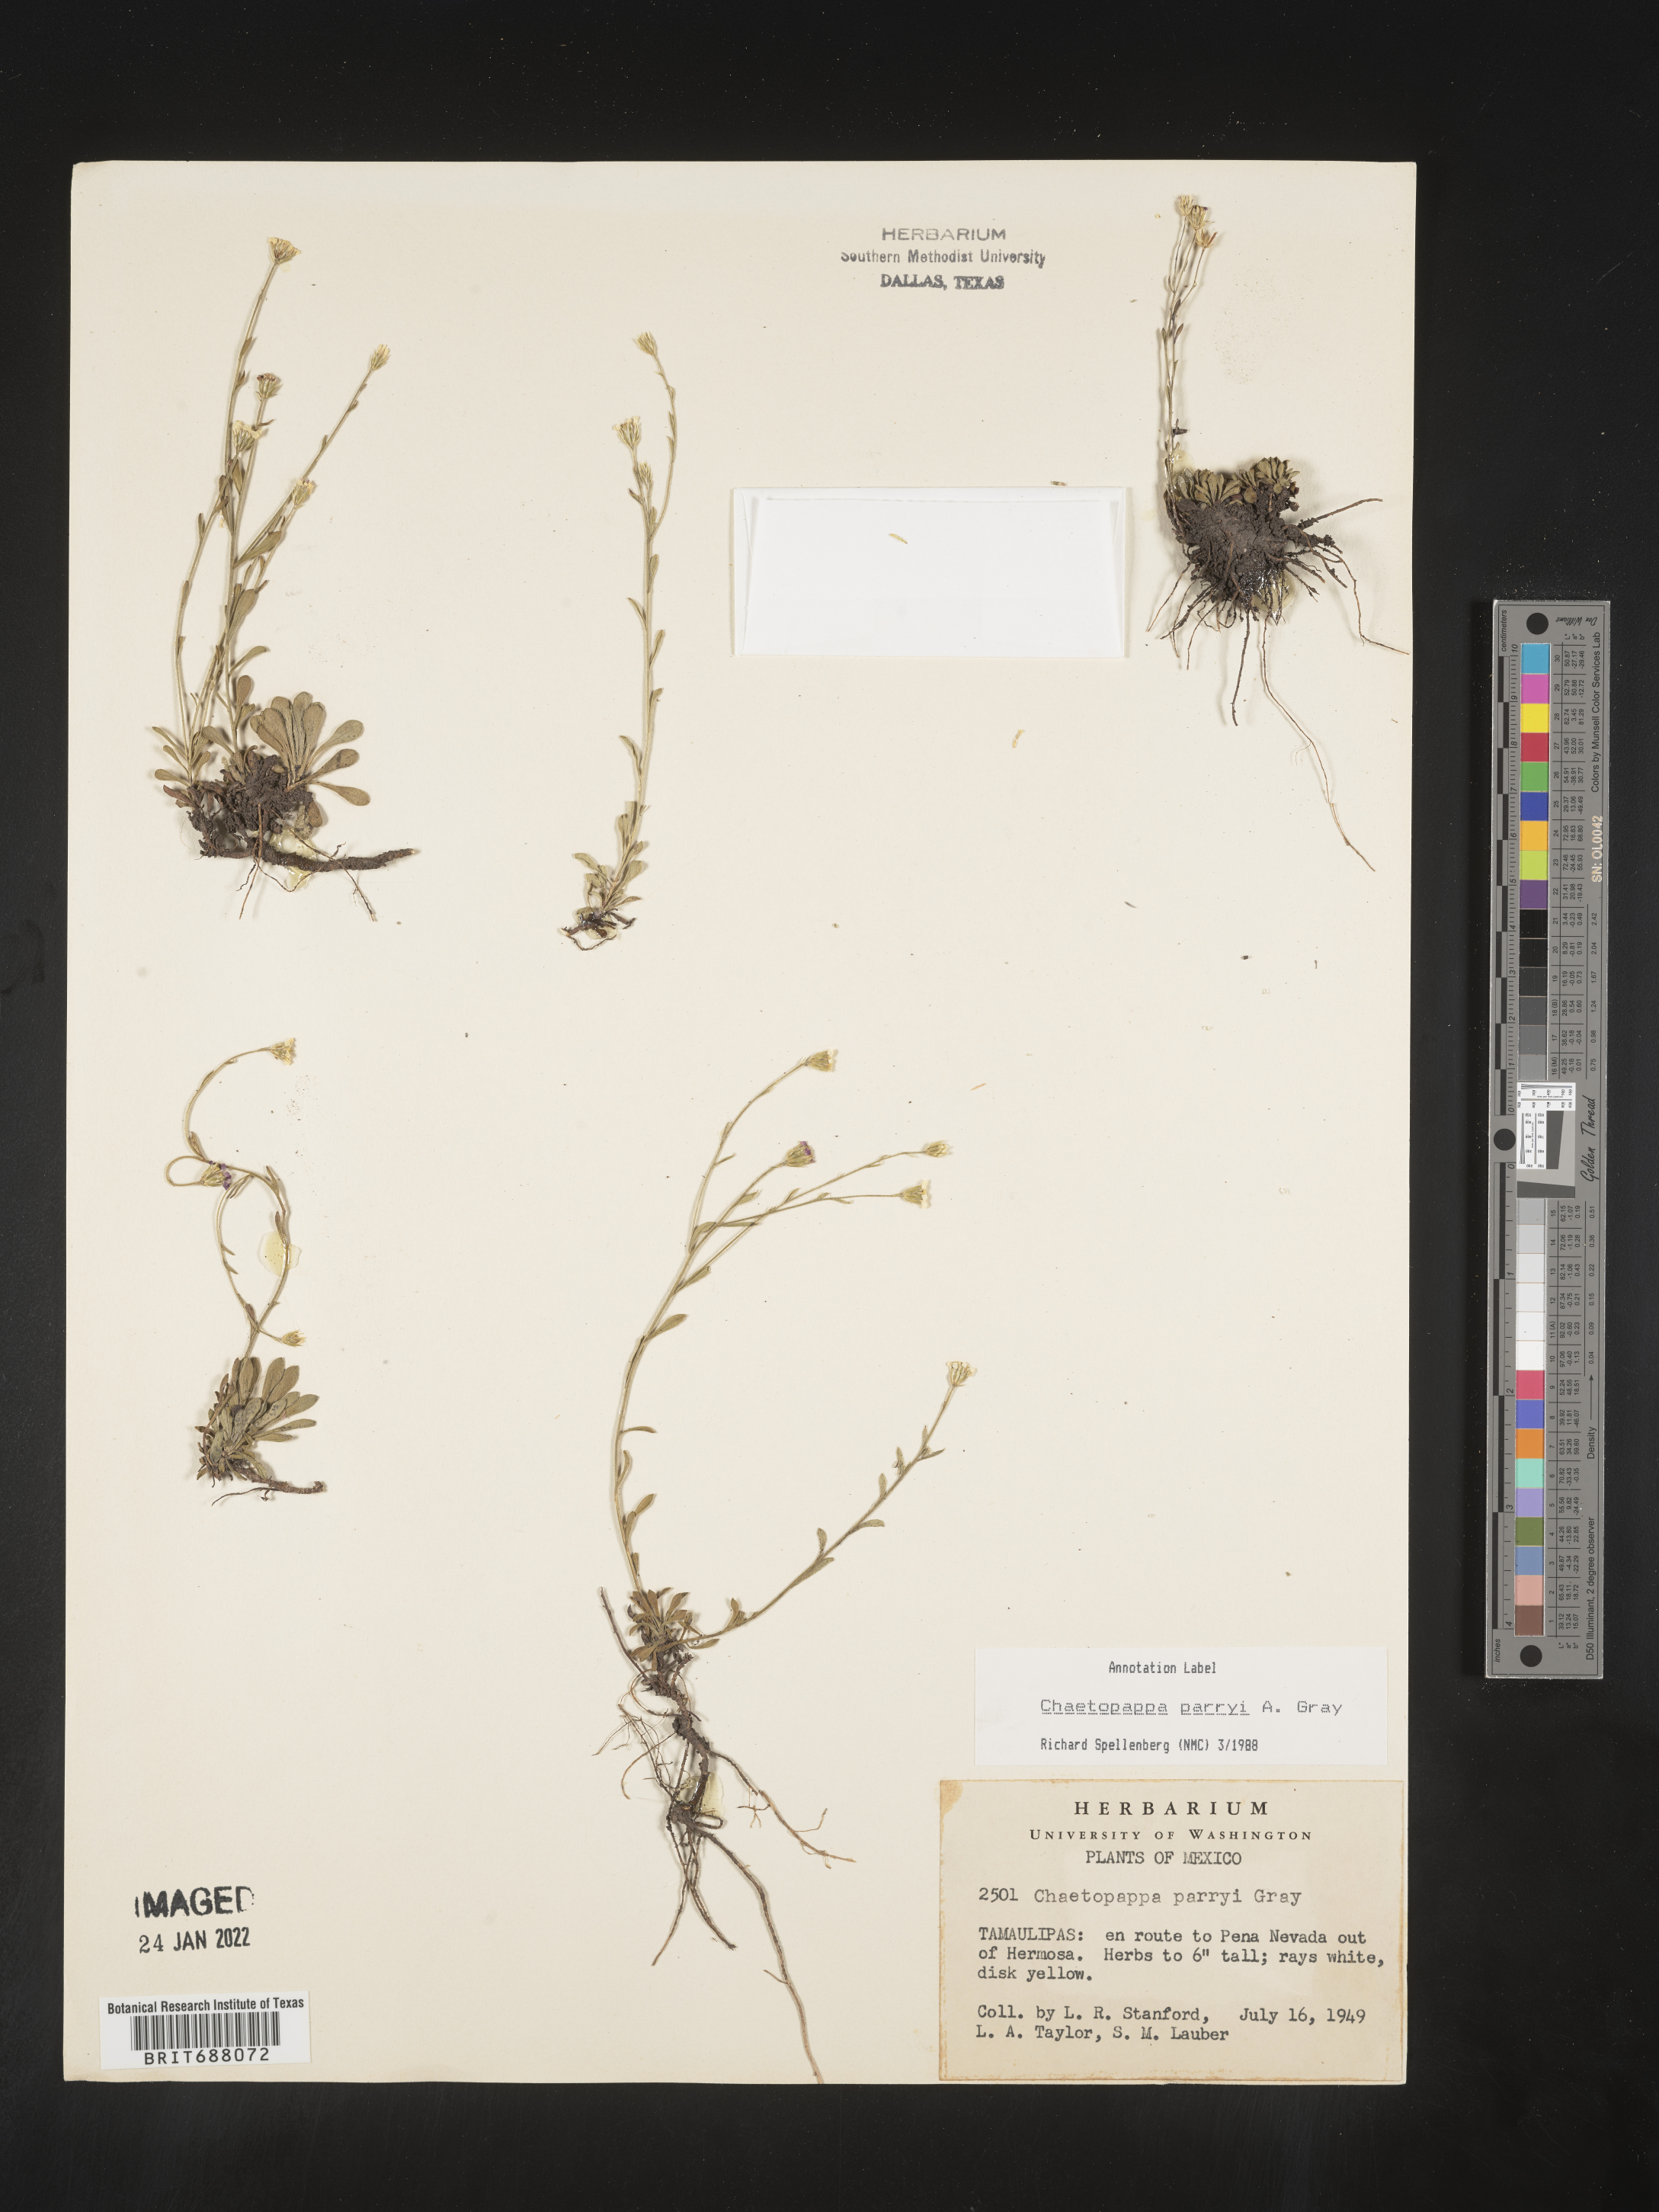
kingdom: Plantae
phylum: Tracheophyta
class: Magnoliopsida
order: Asterales
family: Asteraceae
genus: Chaetopappa
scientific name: Chaetopappa
